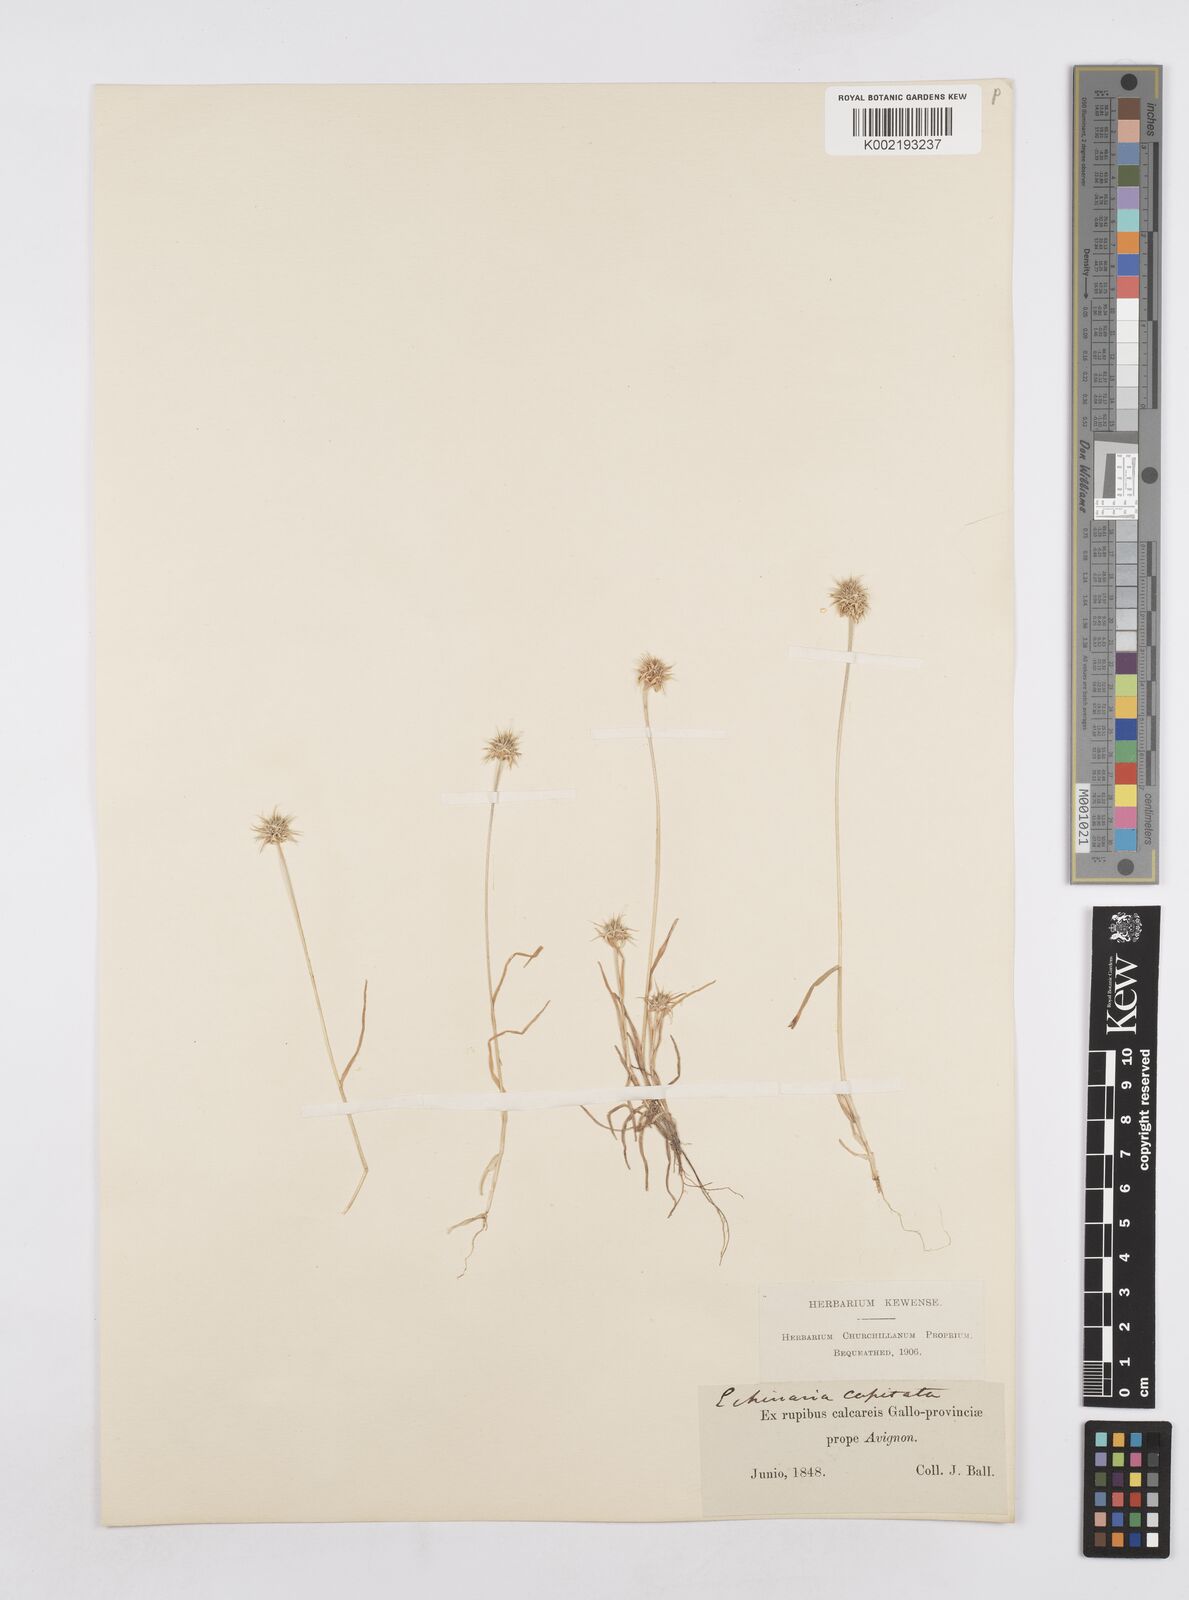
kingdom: Plantae
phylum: Tracheophyta
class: Liliopsida
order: Poales
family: Poaceae
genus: Echinaria
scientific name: Echinaria capitata
